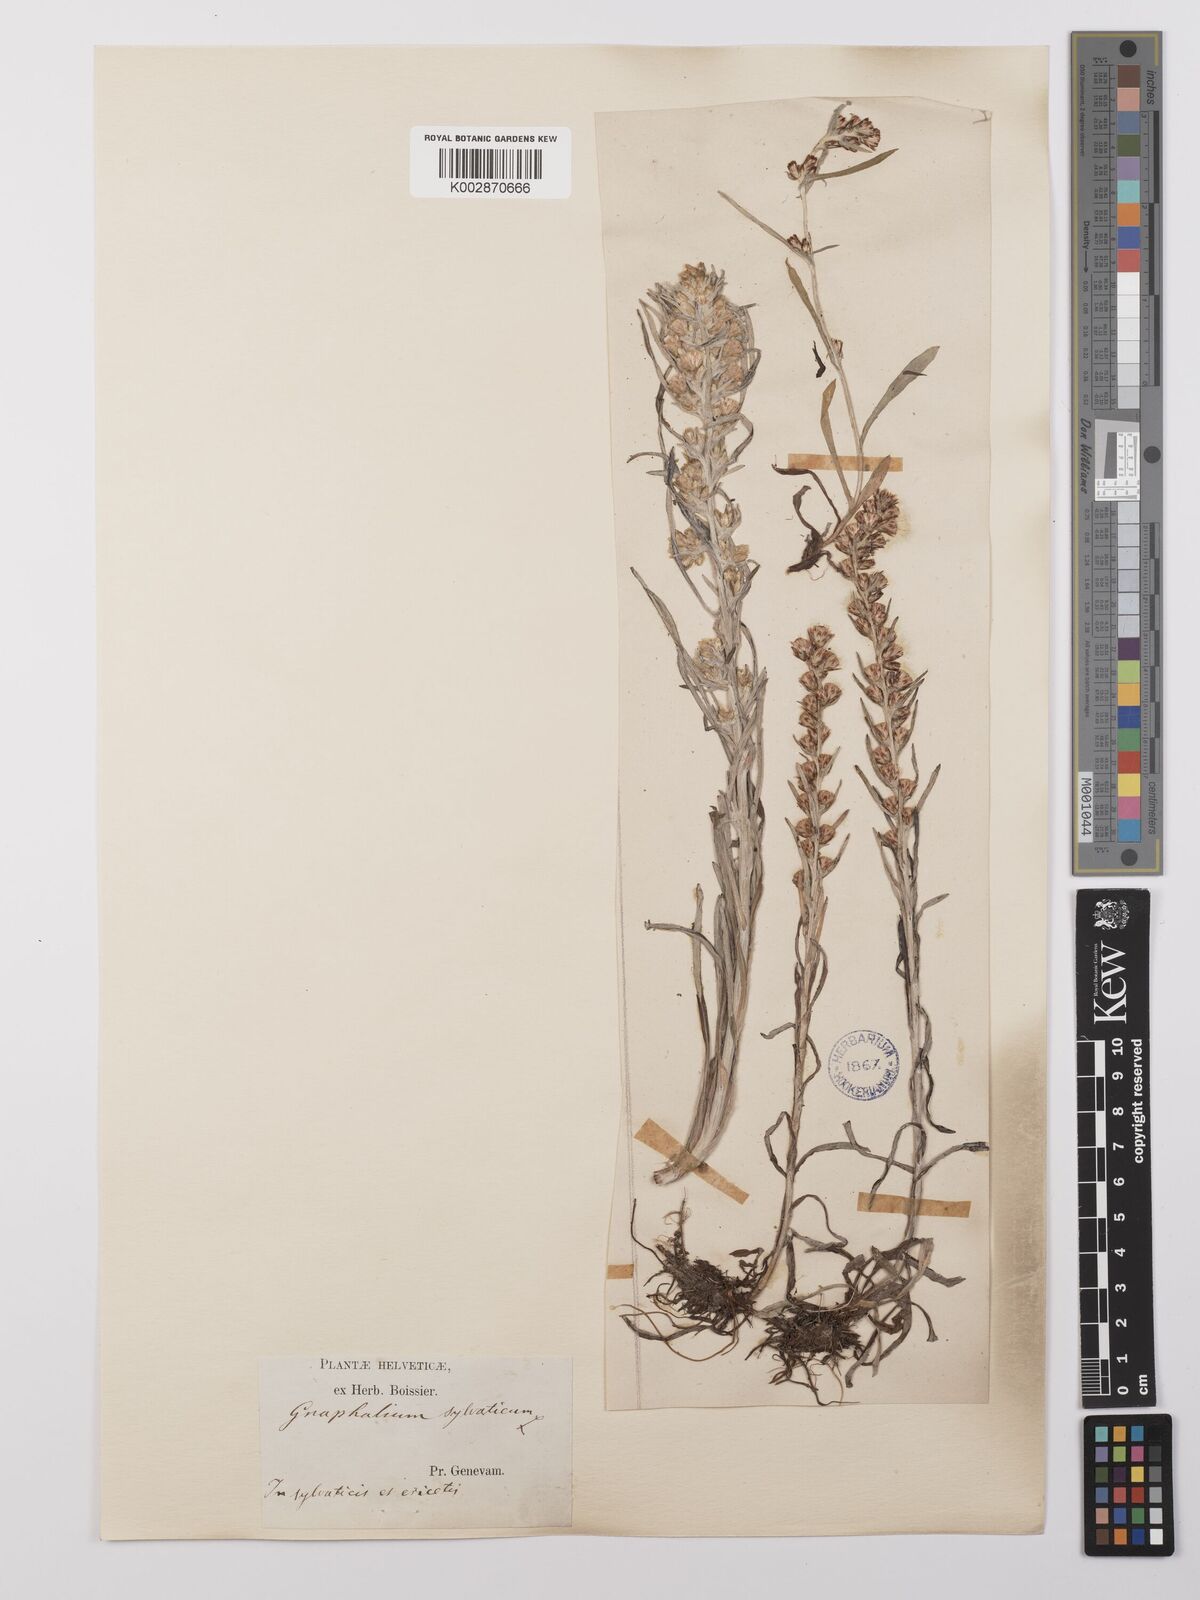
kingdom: Plantae
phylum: Tracheophyta
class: Magnoliopsida
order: Asterales
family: Asteraceae
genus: Omalotheca
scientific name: Omalotheca sylvatica
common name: Heath cudweed
